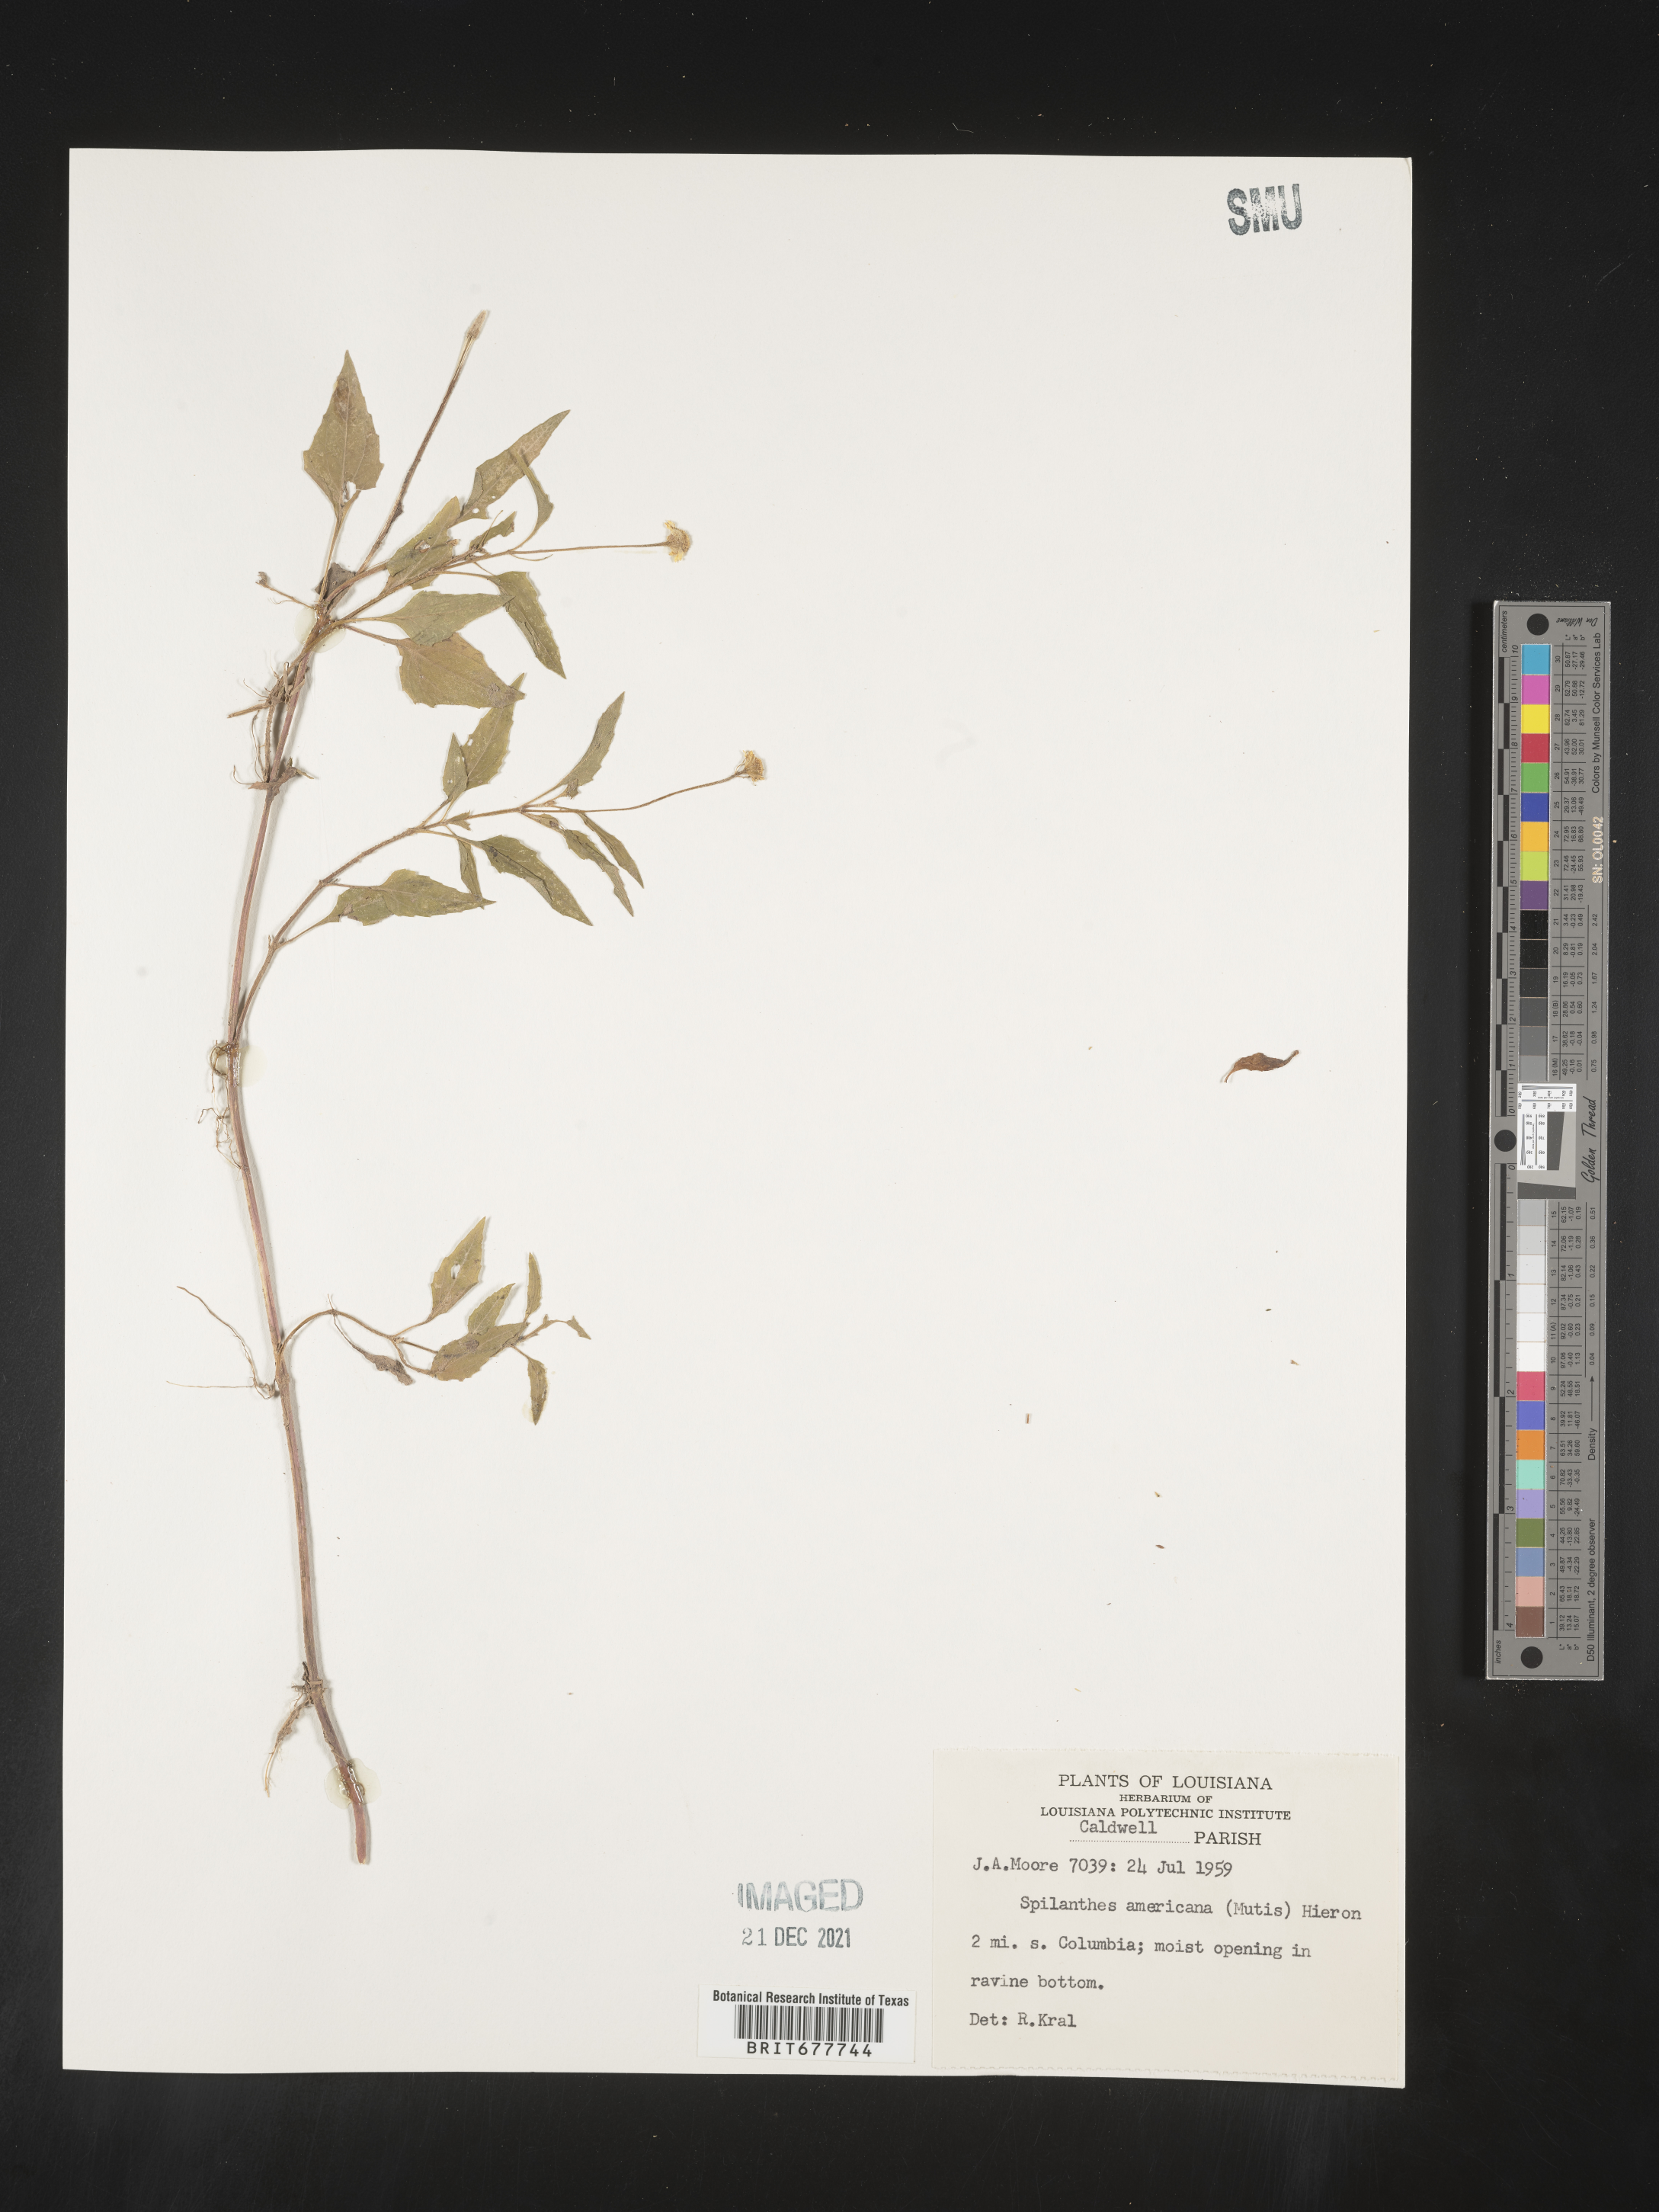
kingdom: Plantae
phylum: Tracheophyta
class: Magnoliopsida
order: Asterales
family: Asteraceae
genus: Spilanthes
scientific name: Spilanthes
